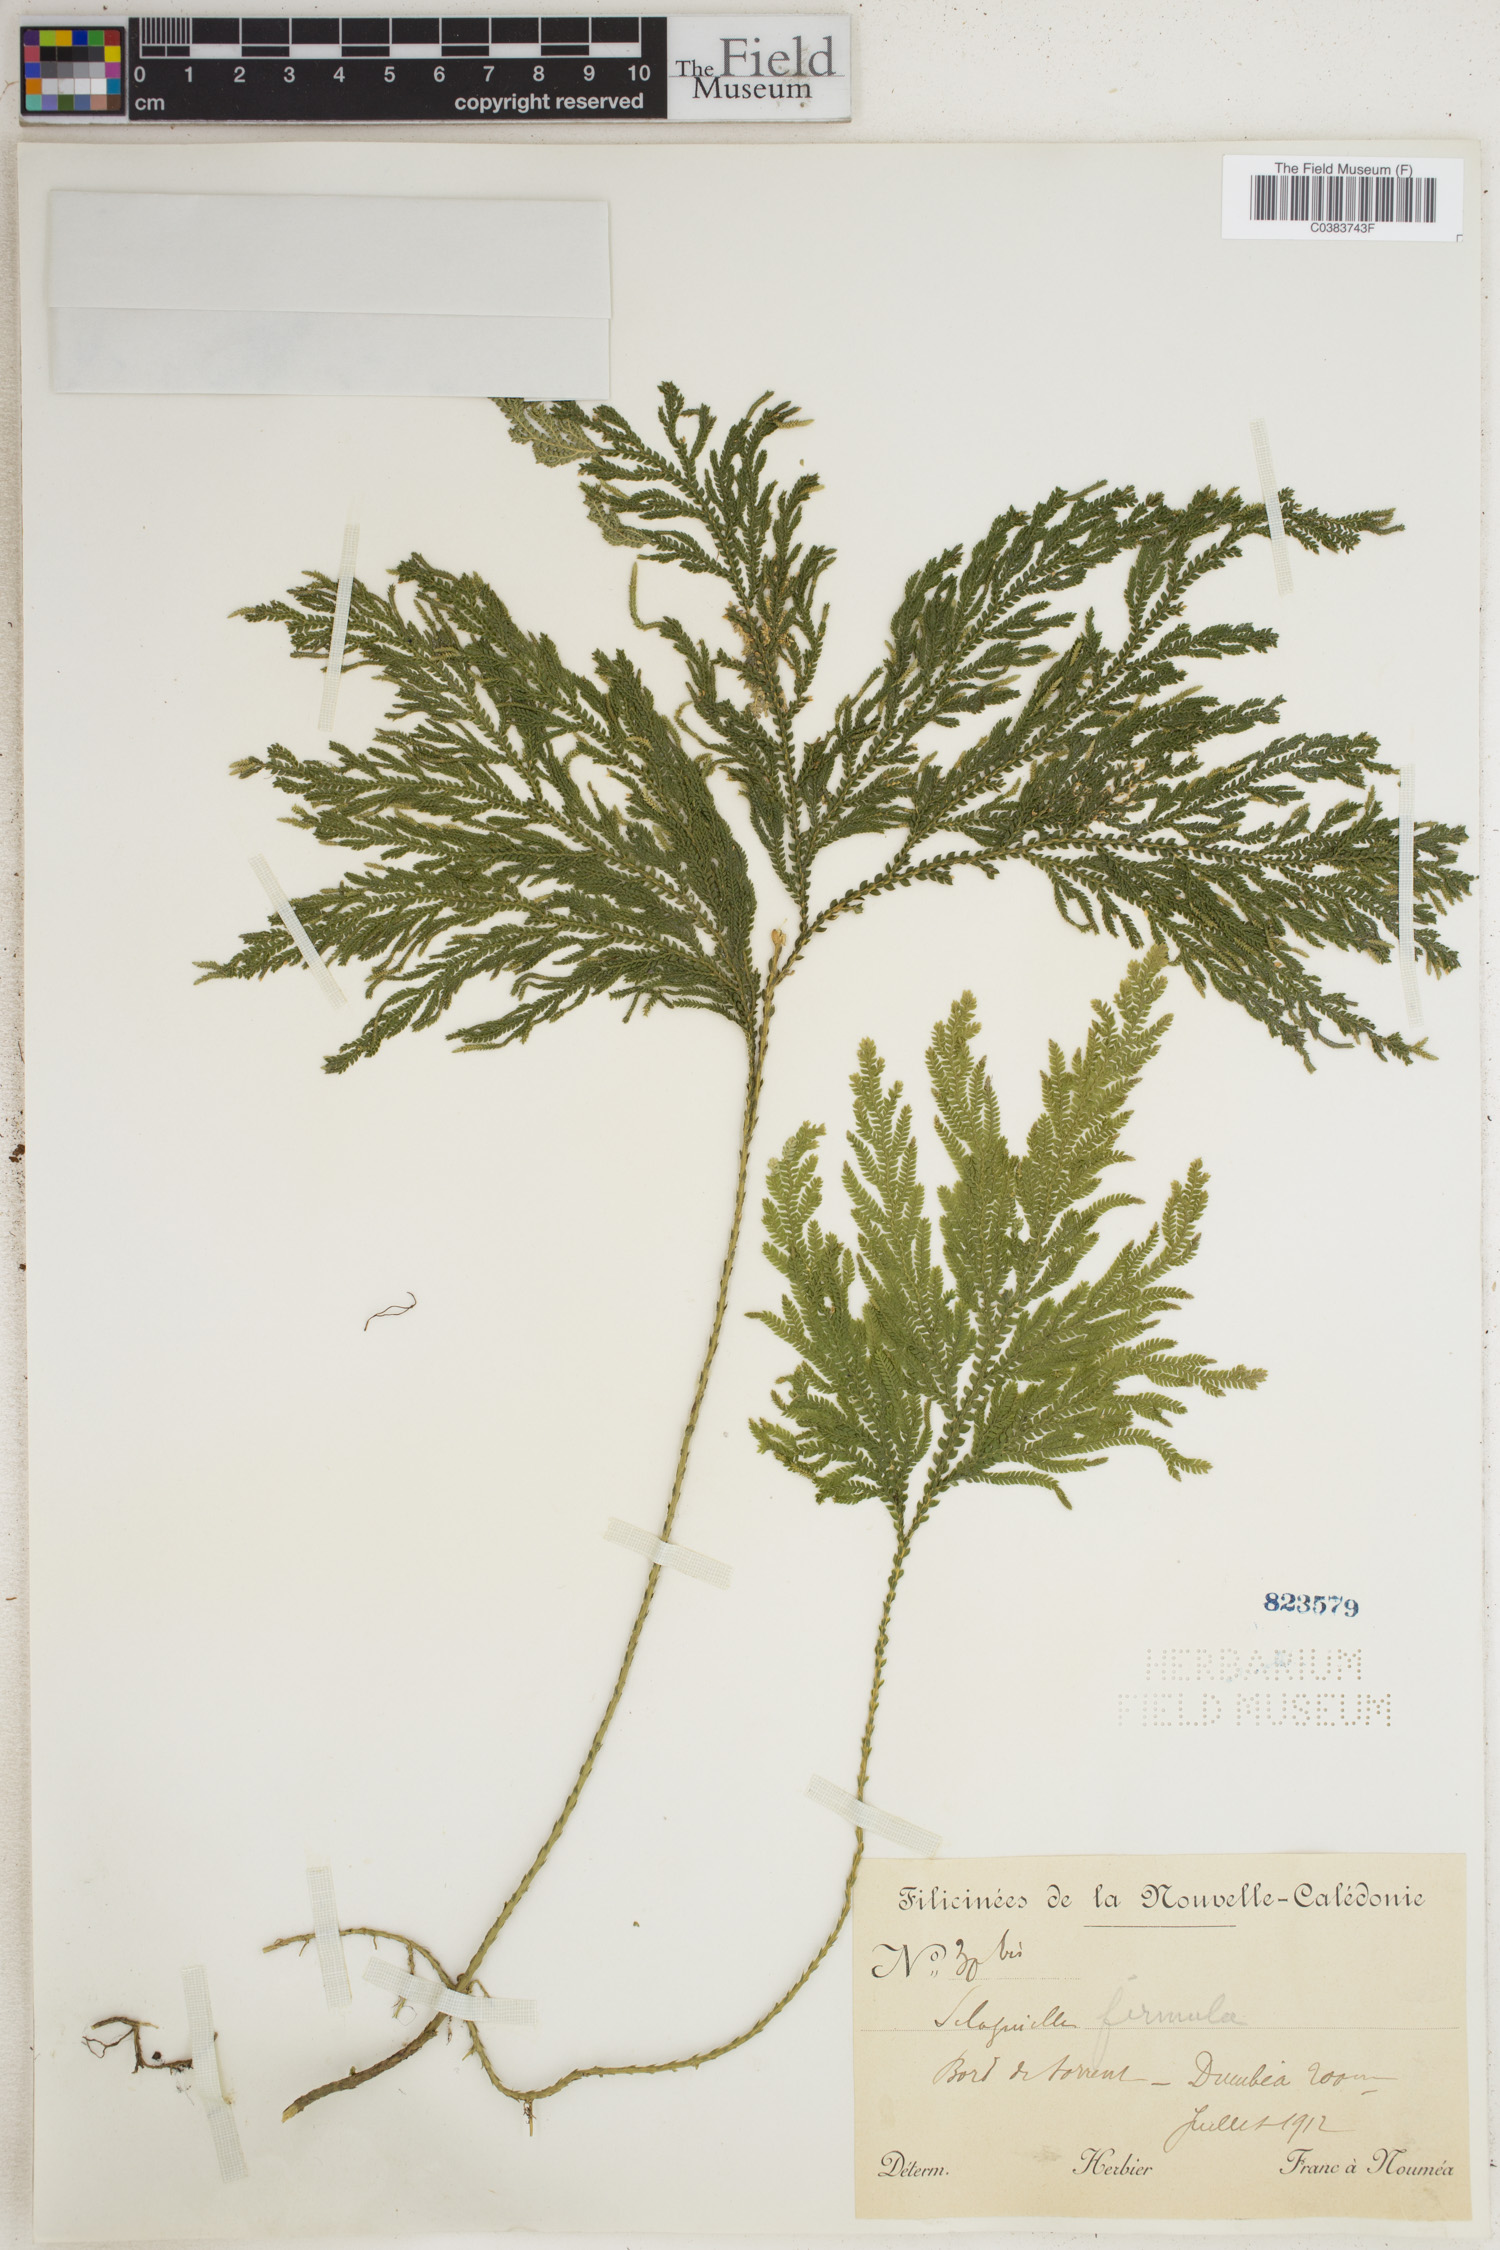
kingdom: Plantae
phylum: Tracheophyta
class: Lycopodiopsida
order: Selaginellales
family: Selaginellaceae
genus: Selaginella
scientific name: Selaginella firmula
